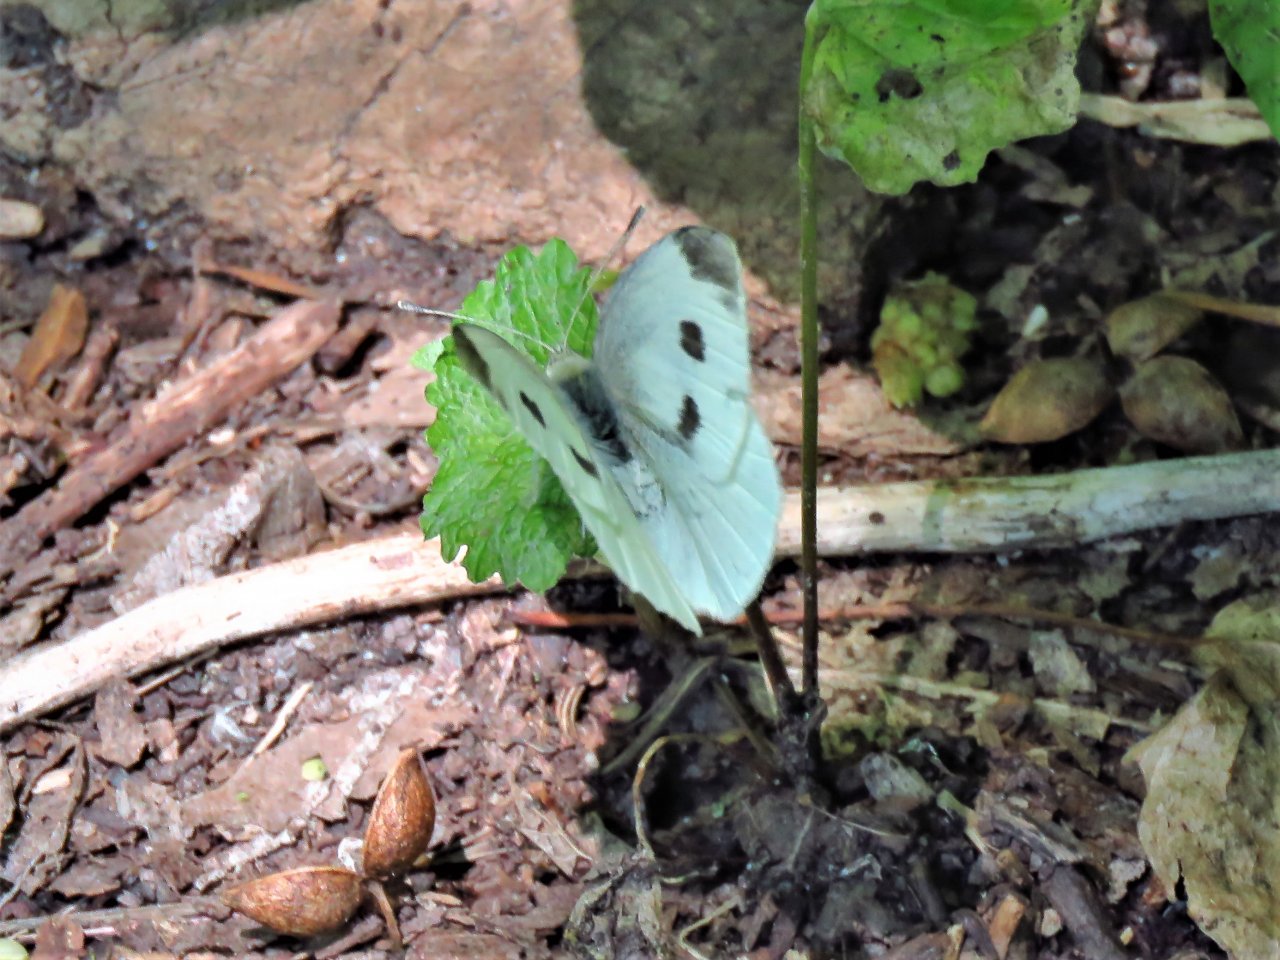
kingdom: Animalia
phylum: Arthropoda
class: Insecta
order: Lepidoptera
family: Pieridae
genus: Pieris
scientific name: Pieris rapae
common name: Cabbage White
